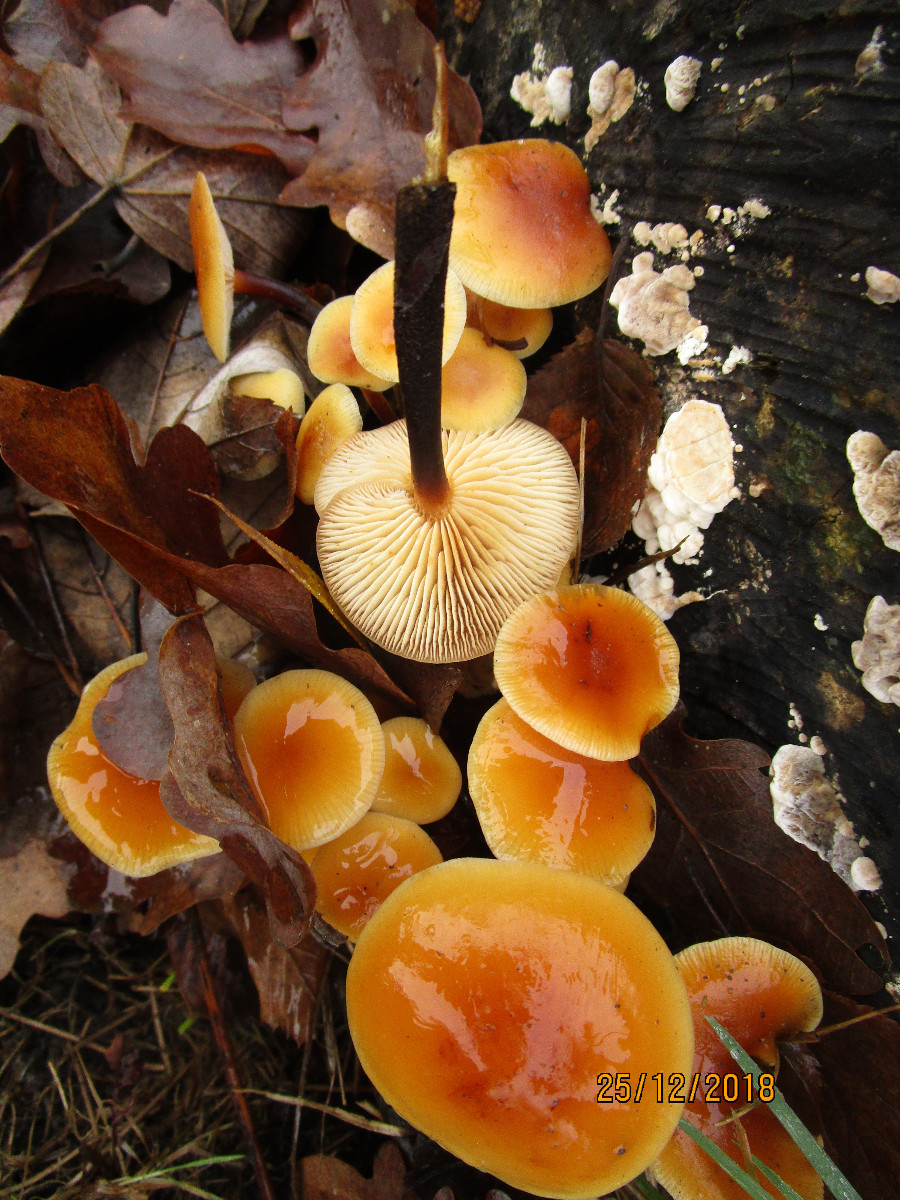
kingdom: Fungi
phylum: Basidiomycota
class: Agaricomycetes
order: Agaricales
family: Physalacriaceae
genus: Flammulina
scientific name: Flammulina velutipes
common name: gul fløjlsfod
